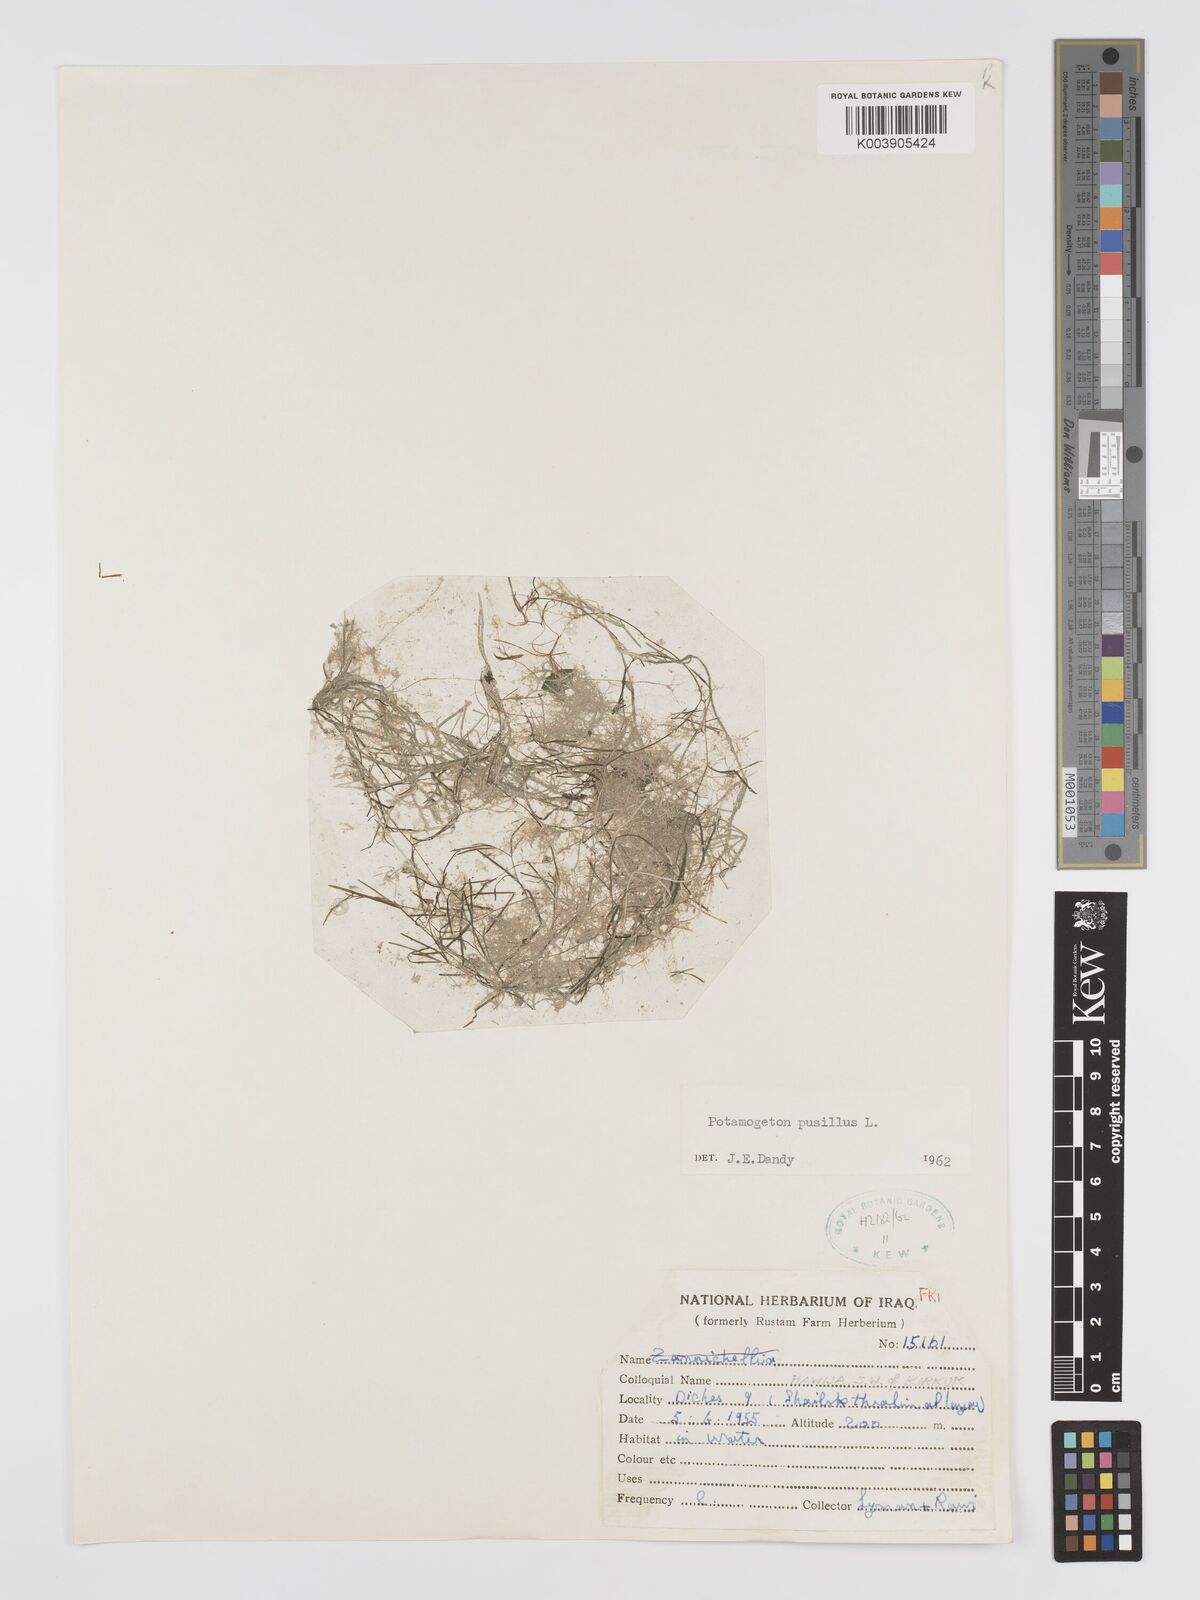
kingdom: Plantae
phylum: Tracheophyta
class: Liliopsida
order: Alismatales
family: Potamogetonaceae
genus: Potamogeton
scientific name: Potamogeton pusillus
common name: Lesser pondweed
